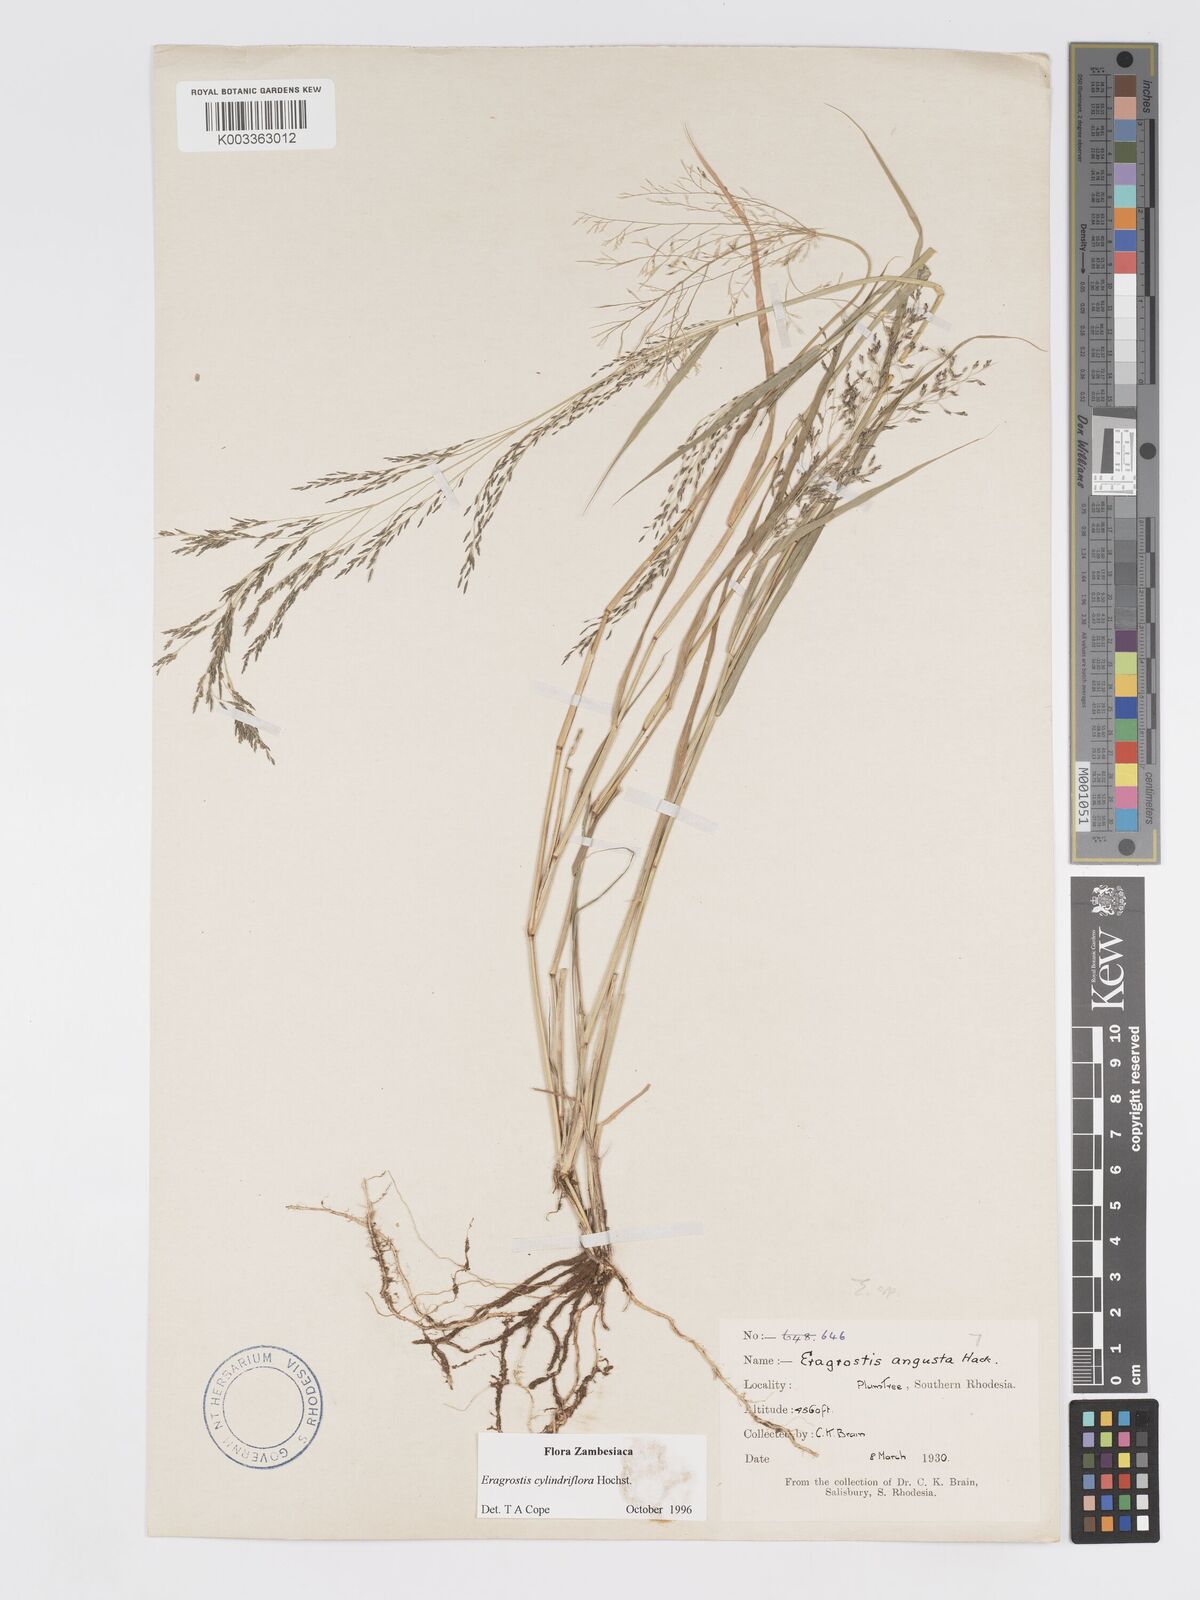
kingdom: Plantae
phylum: Tracheophyta
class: Liliopsida
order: Poales
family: Poaceae
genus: Eragrostis
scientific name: Eragrostis cylindriflora
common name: Cylinderflower lovegrass
